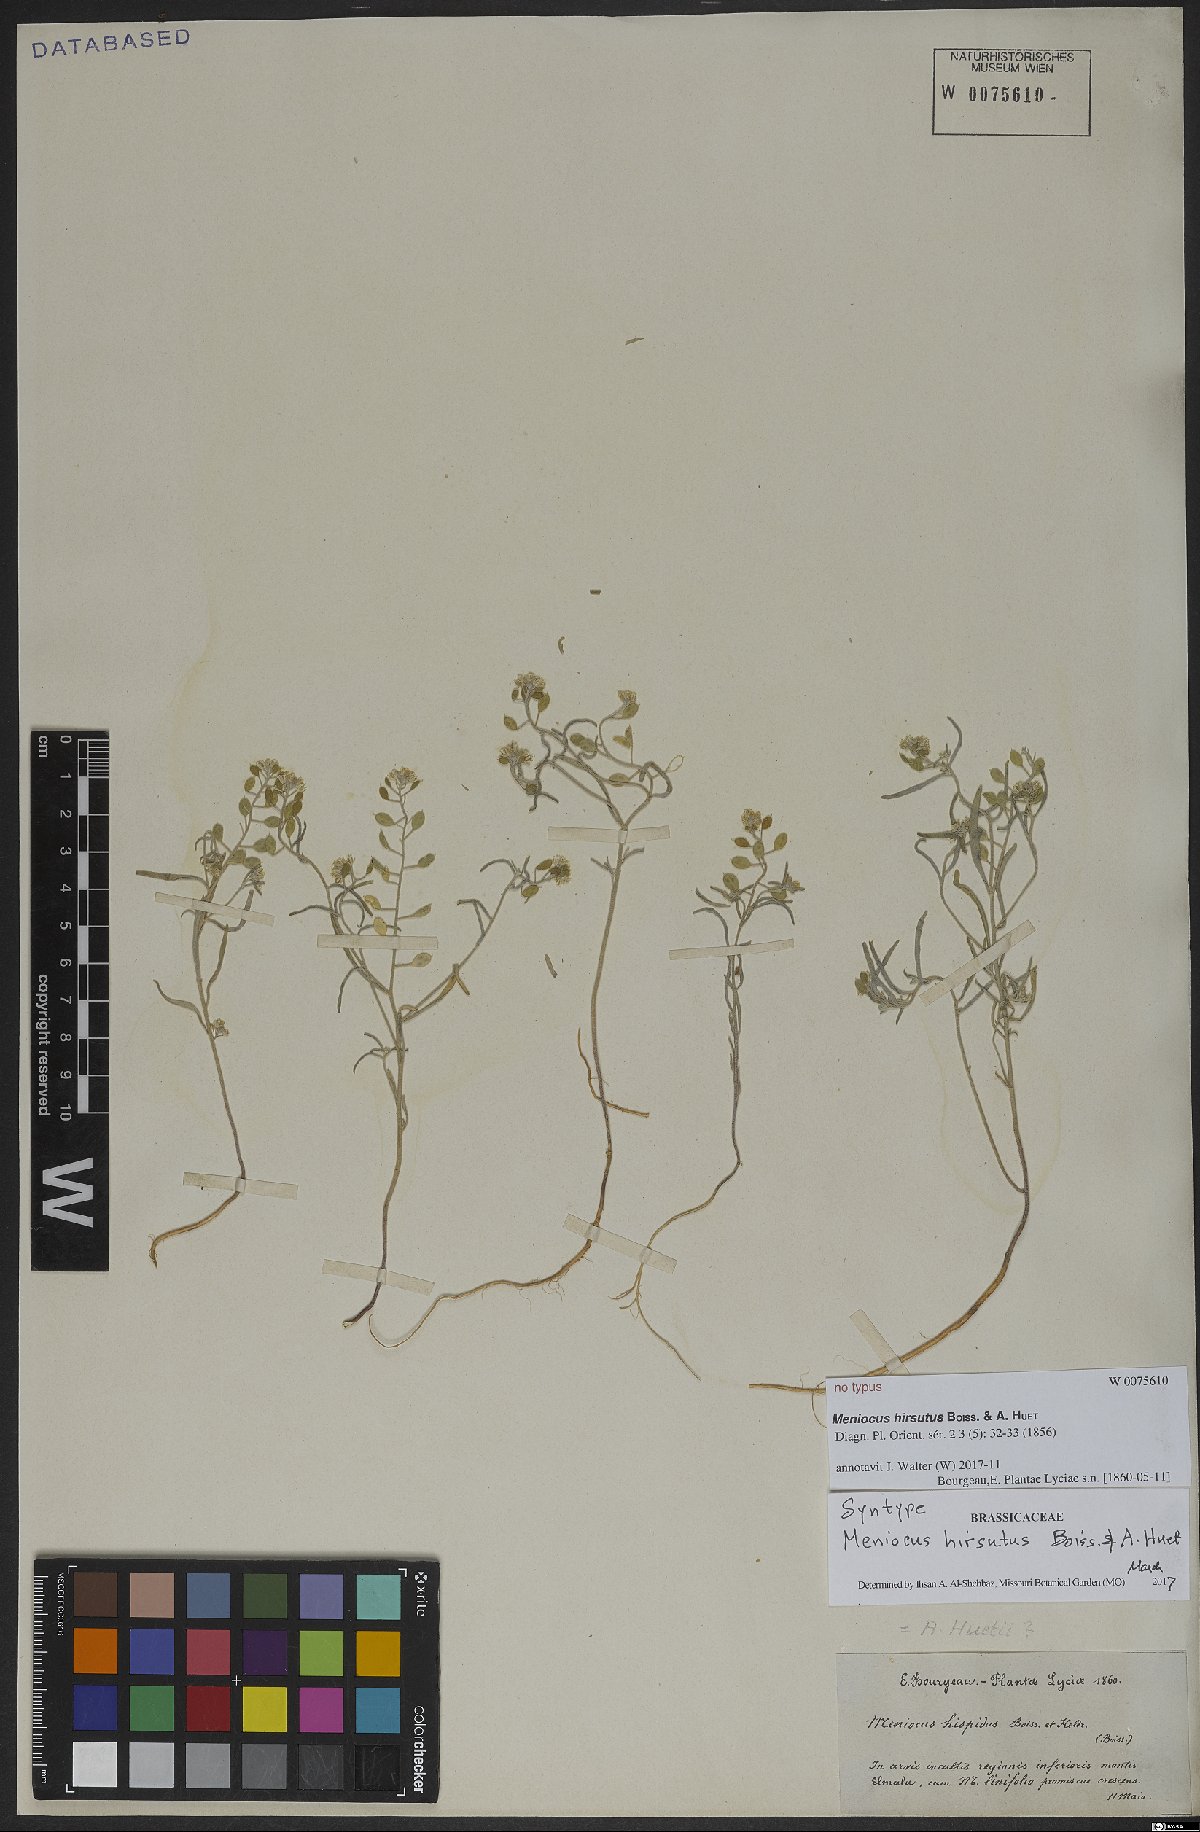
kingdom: Plantae
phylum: Tracheophyta
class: Magnoliopsida
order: Brassicales
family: Brassicaceae
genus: Meniocus
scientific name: Meniocus hirsutus
